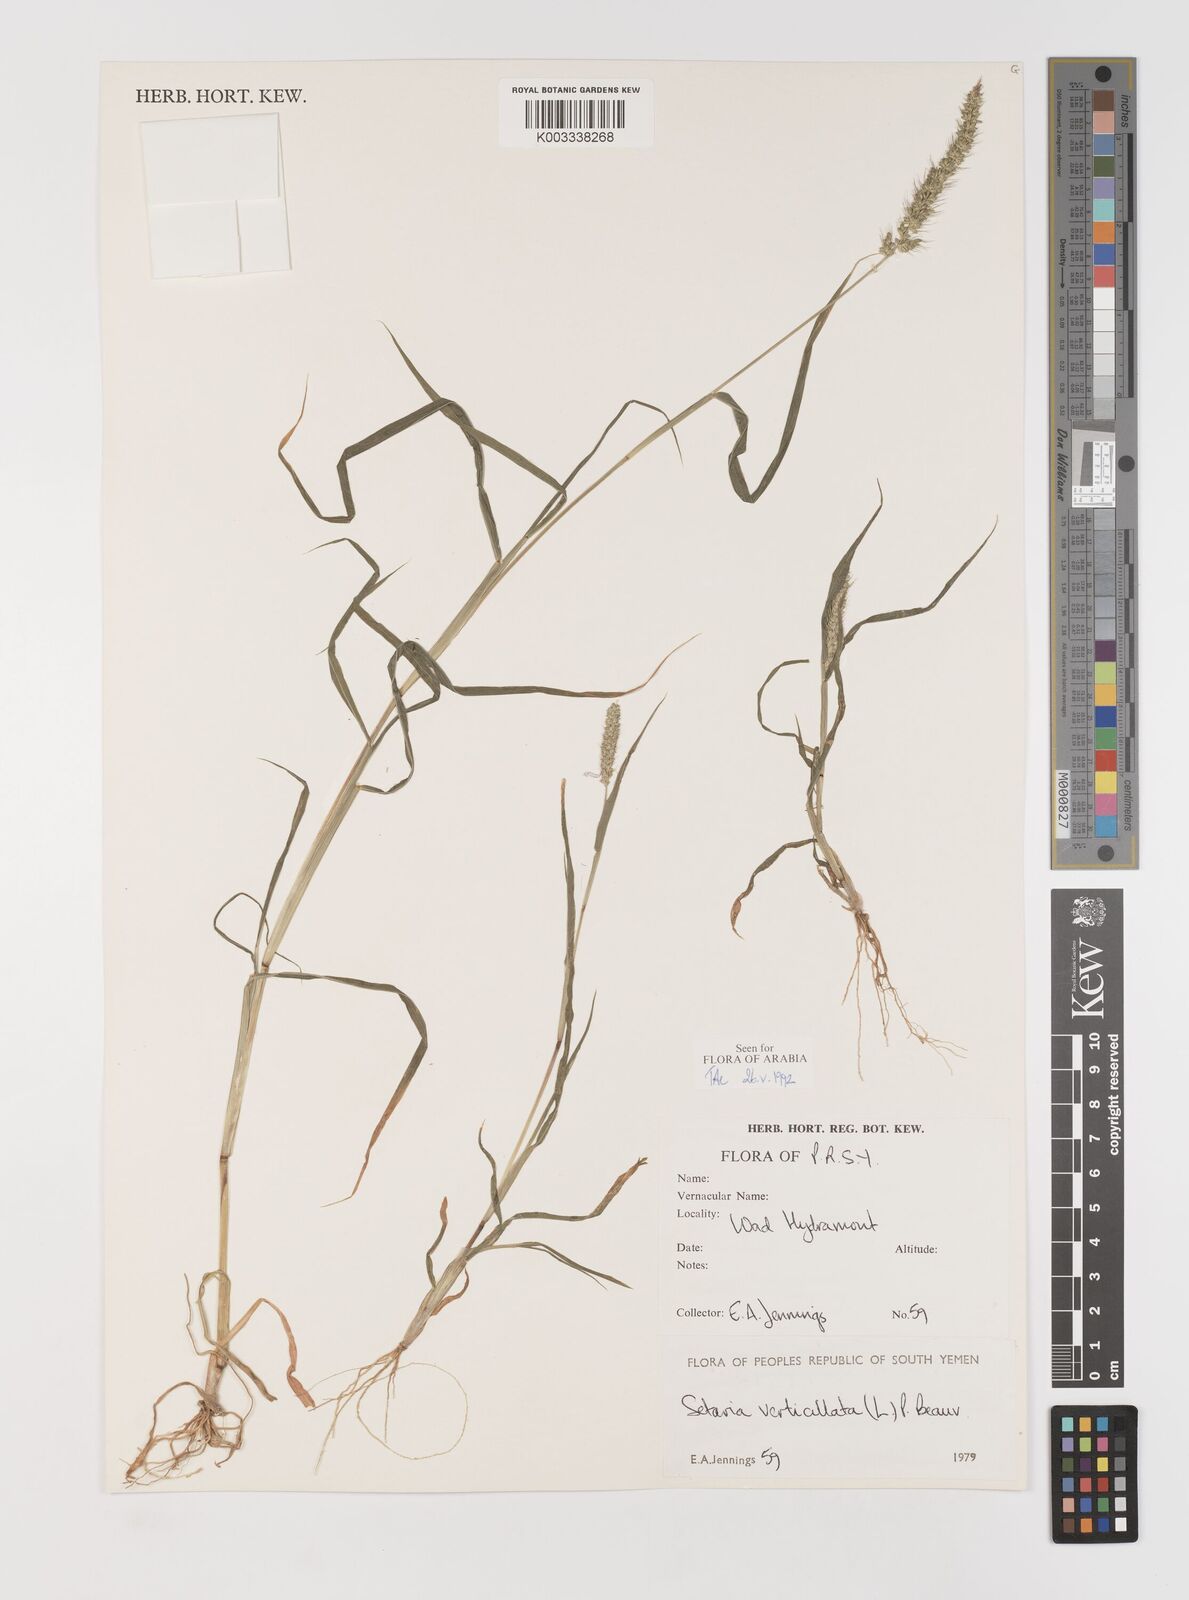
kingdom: Plantae
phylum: Tracheophyta
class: Liliopsida
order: Poales
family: Poaceae
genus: Setaria
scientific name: Setaria verticillata
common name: Hooked bristlegrass
